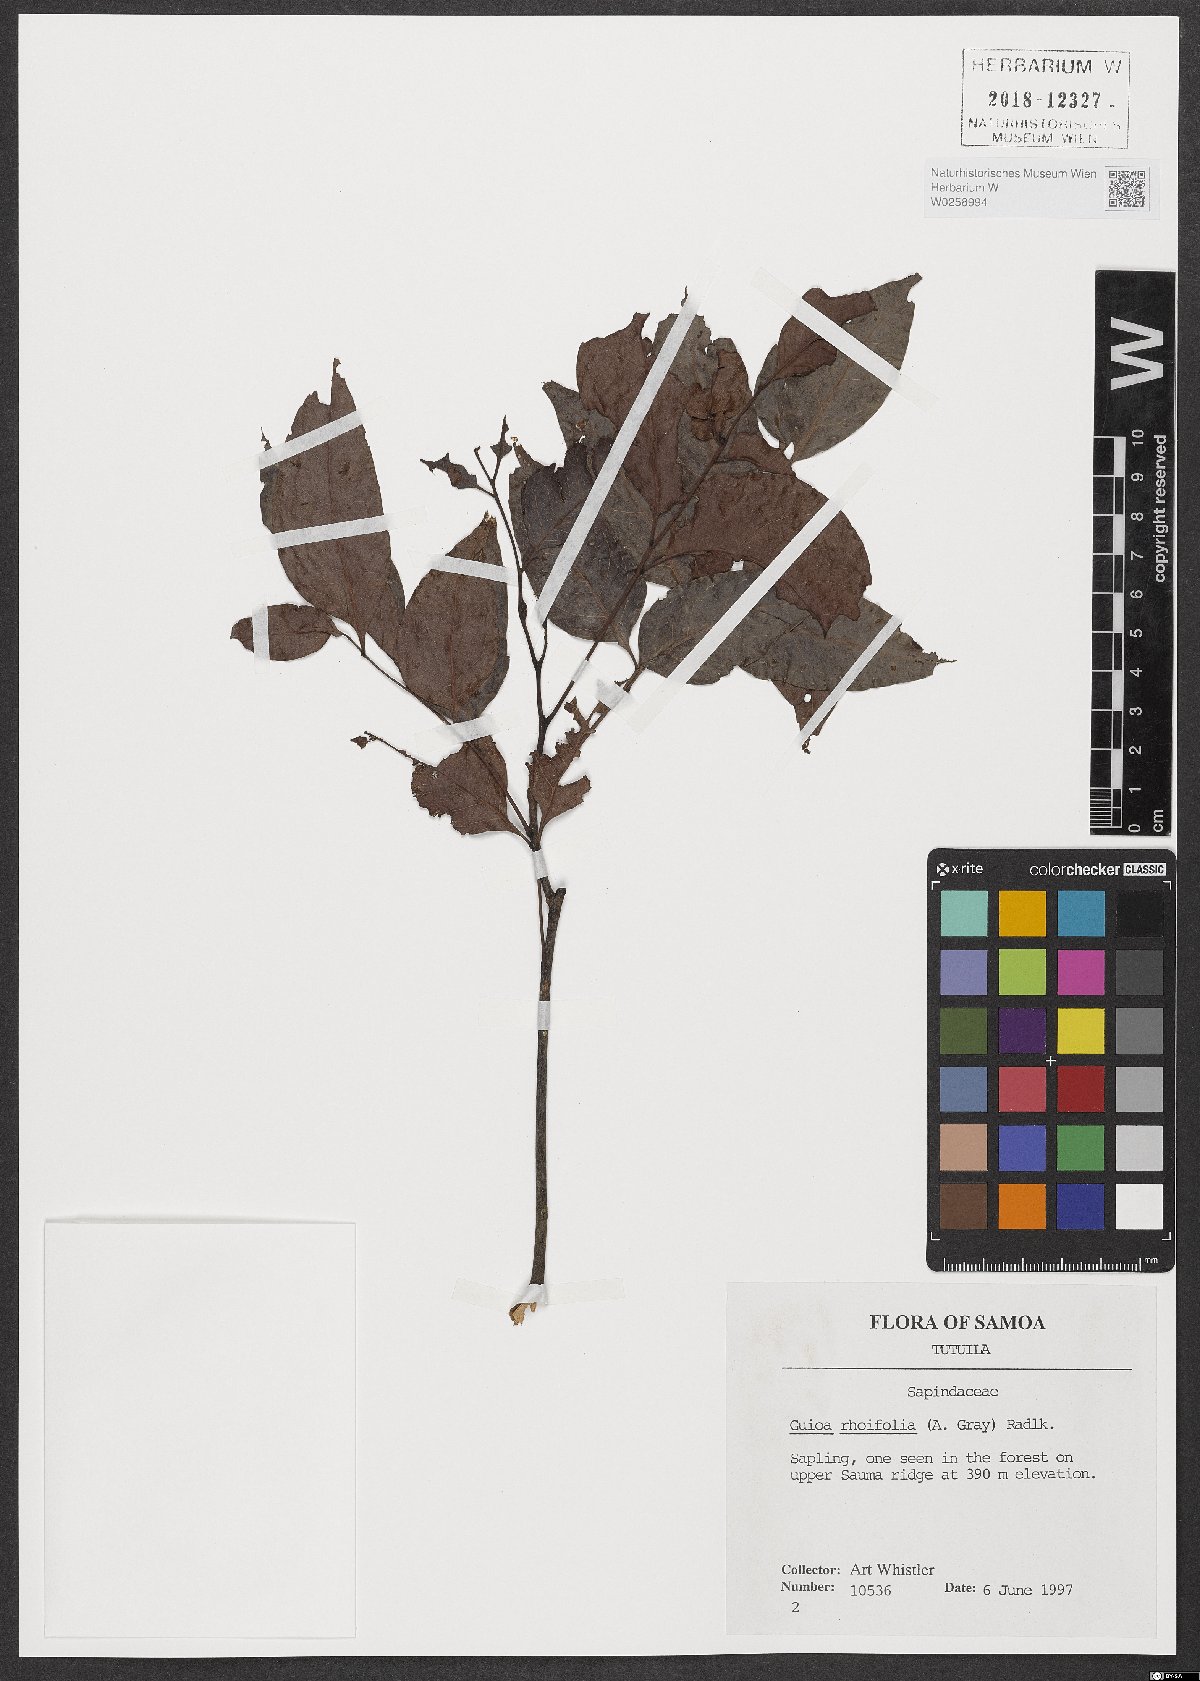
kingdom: Plantae
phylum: Tracheophyta
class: Magnoliopsida
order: Sapindales
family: Sapindaceae
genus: Guioa
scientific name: Guioa rhoifolia
